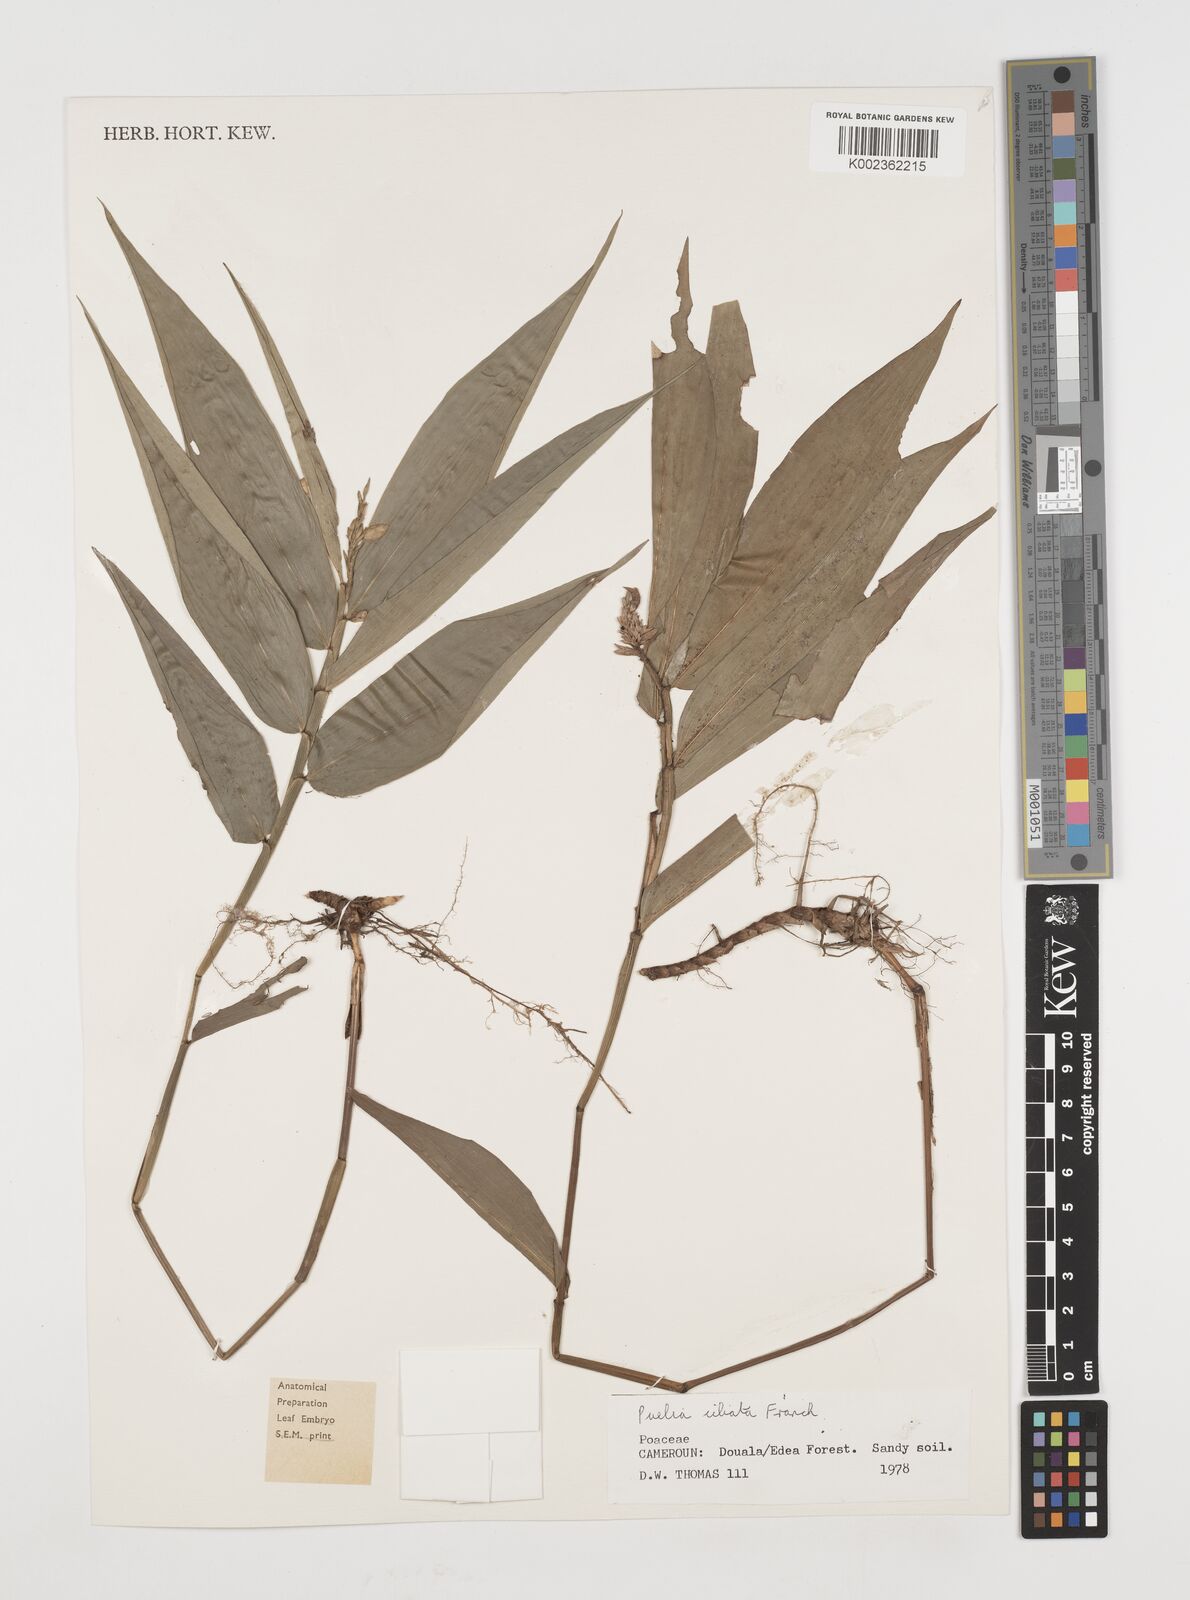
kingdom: Plantae
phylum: Tracheophyta
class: Liliopsida
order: Poales
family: Poaceae
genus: Puelia
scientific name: Puelia ciliata
